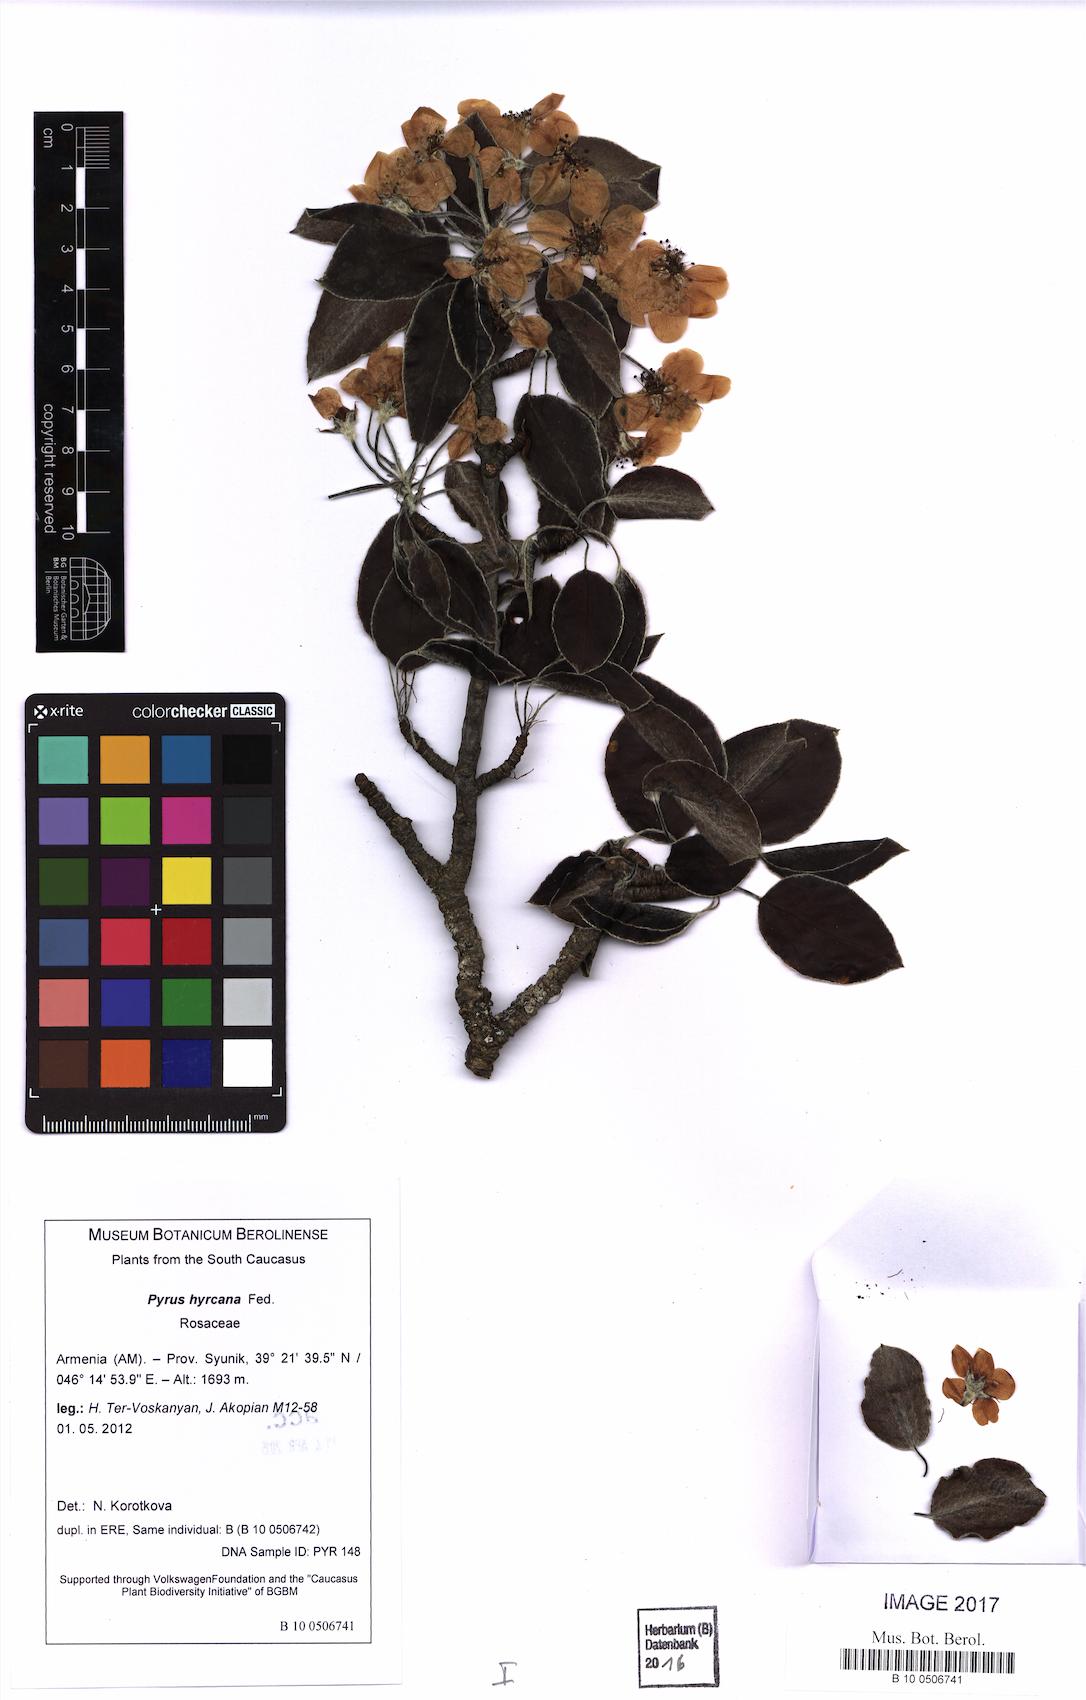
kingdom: Plantae
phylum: Tracheophyta
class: Magnoliopsida
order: Rosales
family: Rosaceae
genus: Pyrus
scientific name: Pyrus hyrcana
